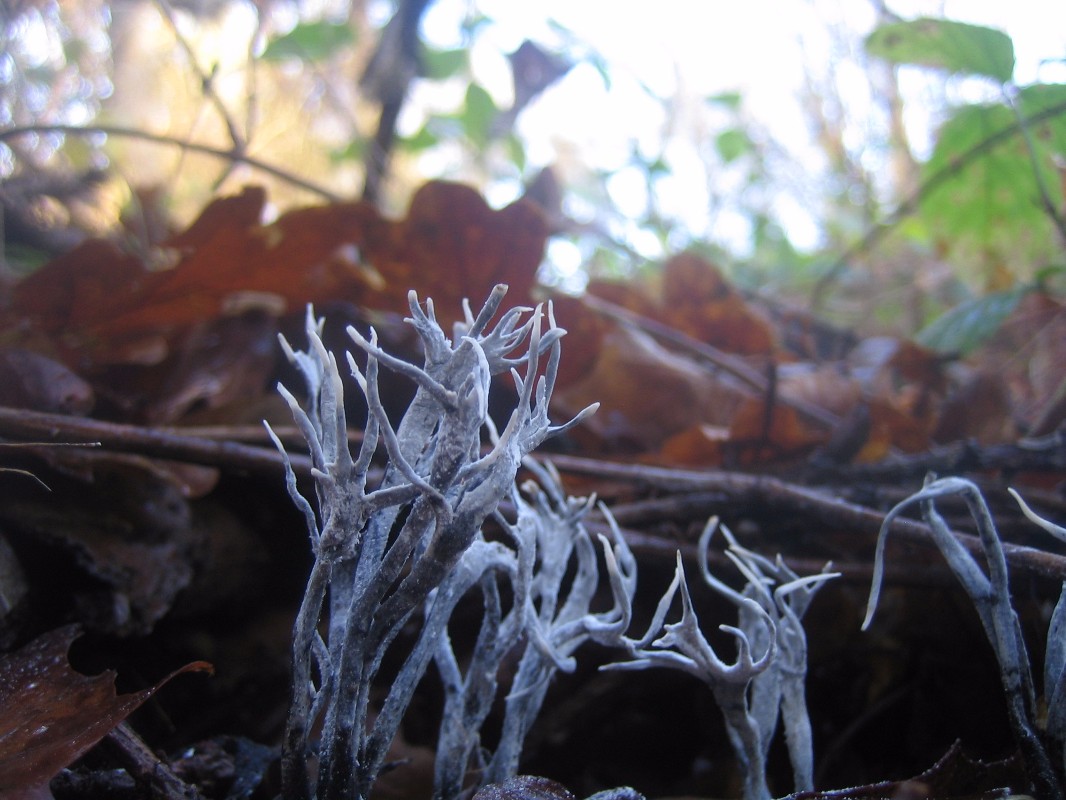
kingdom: Fungi
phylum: Ascomycota
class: Sordariomycetes
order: Xylariales
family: Xylariaceae
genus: Xylaria
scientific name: Xylaria hypoxylon
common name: grenet stødsvamp
